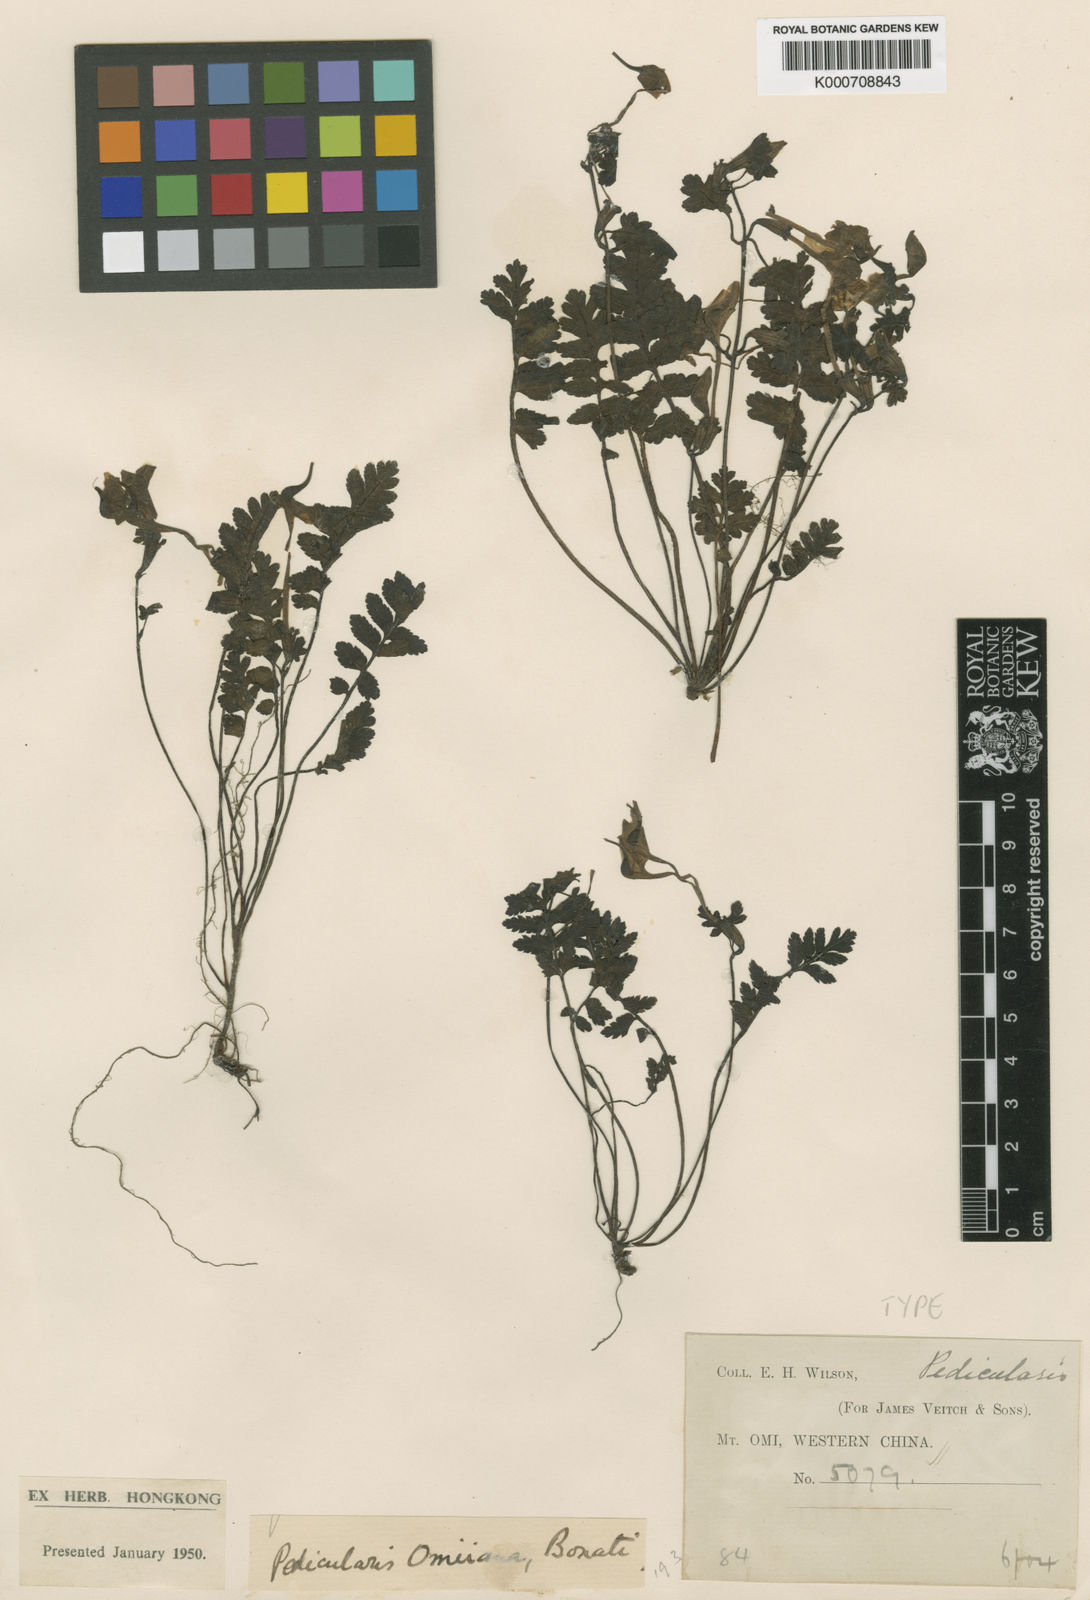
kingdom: Plantae
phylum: Tracheophyta
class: Magnoliopsida
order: Lamiales
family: Orobanchaceae
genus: Pedicularis
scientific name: Pedicularis omiiana
